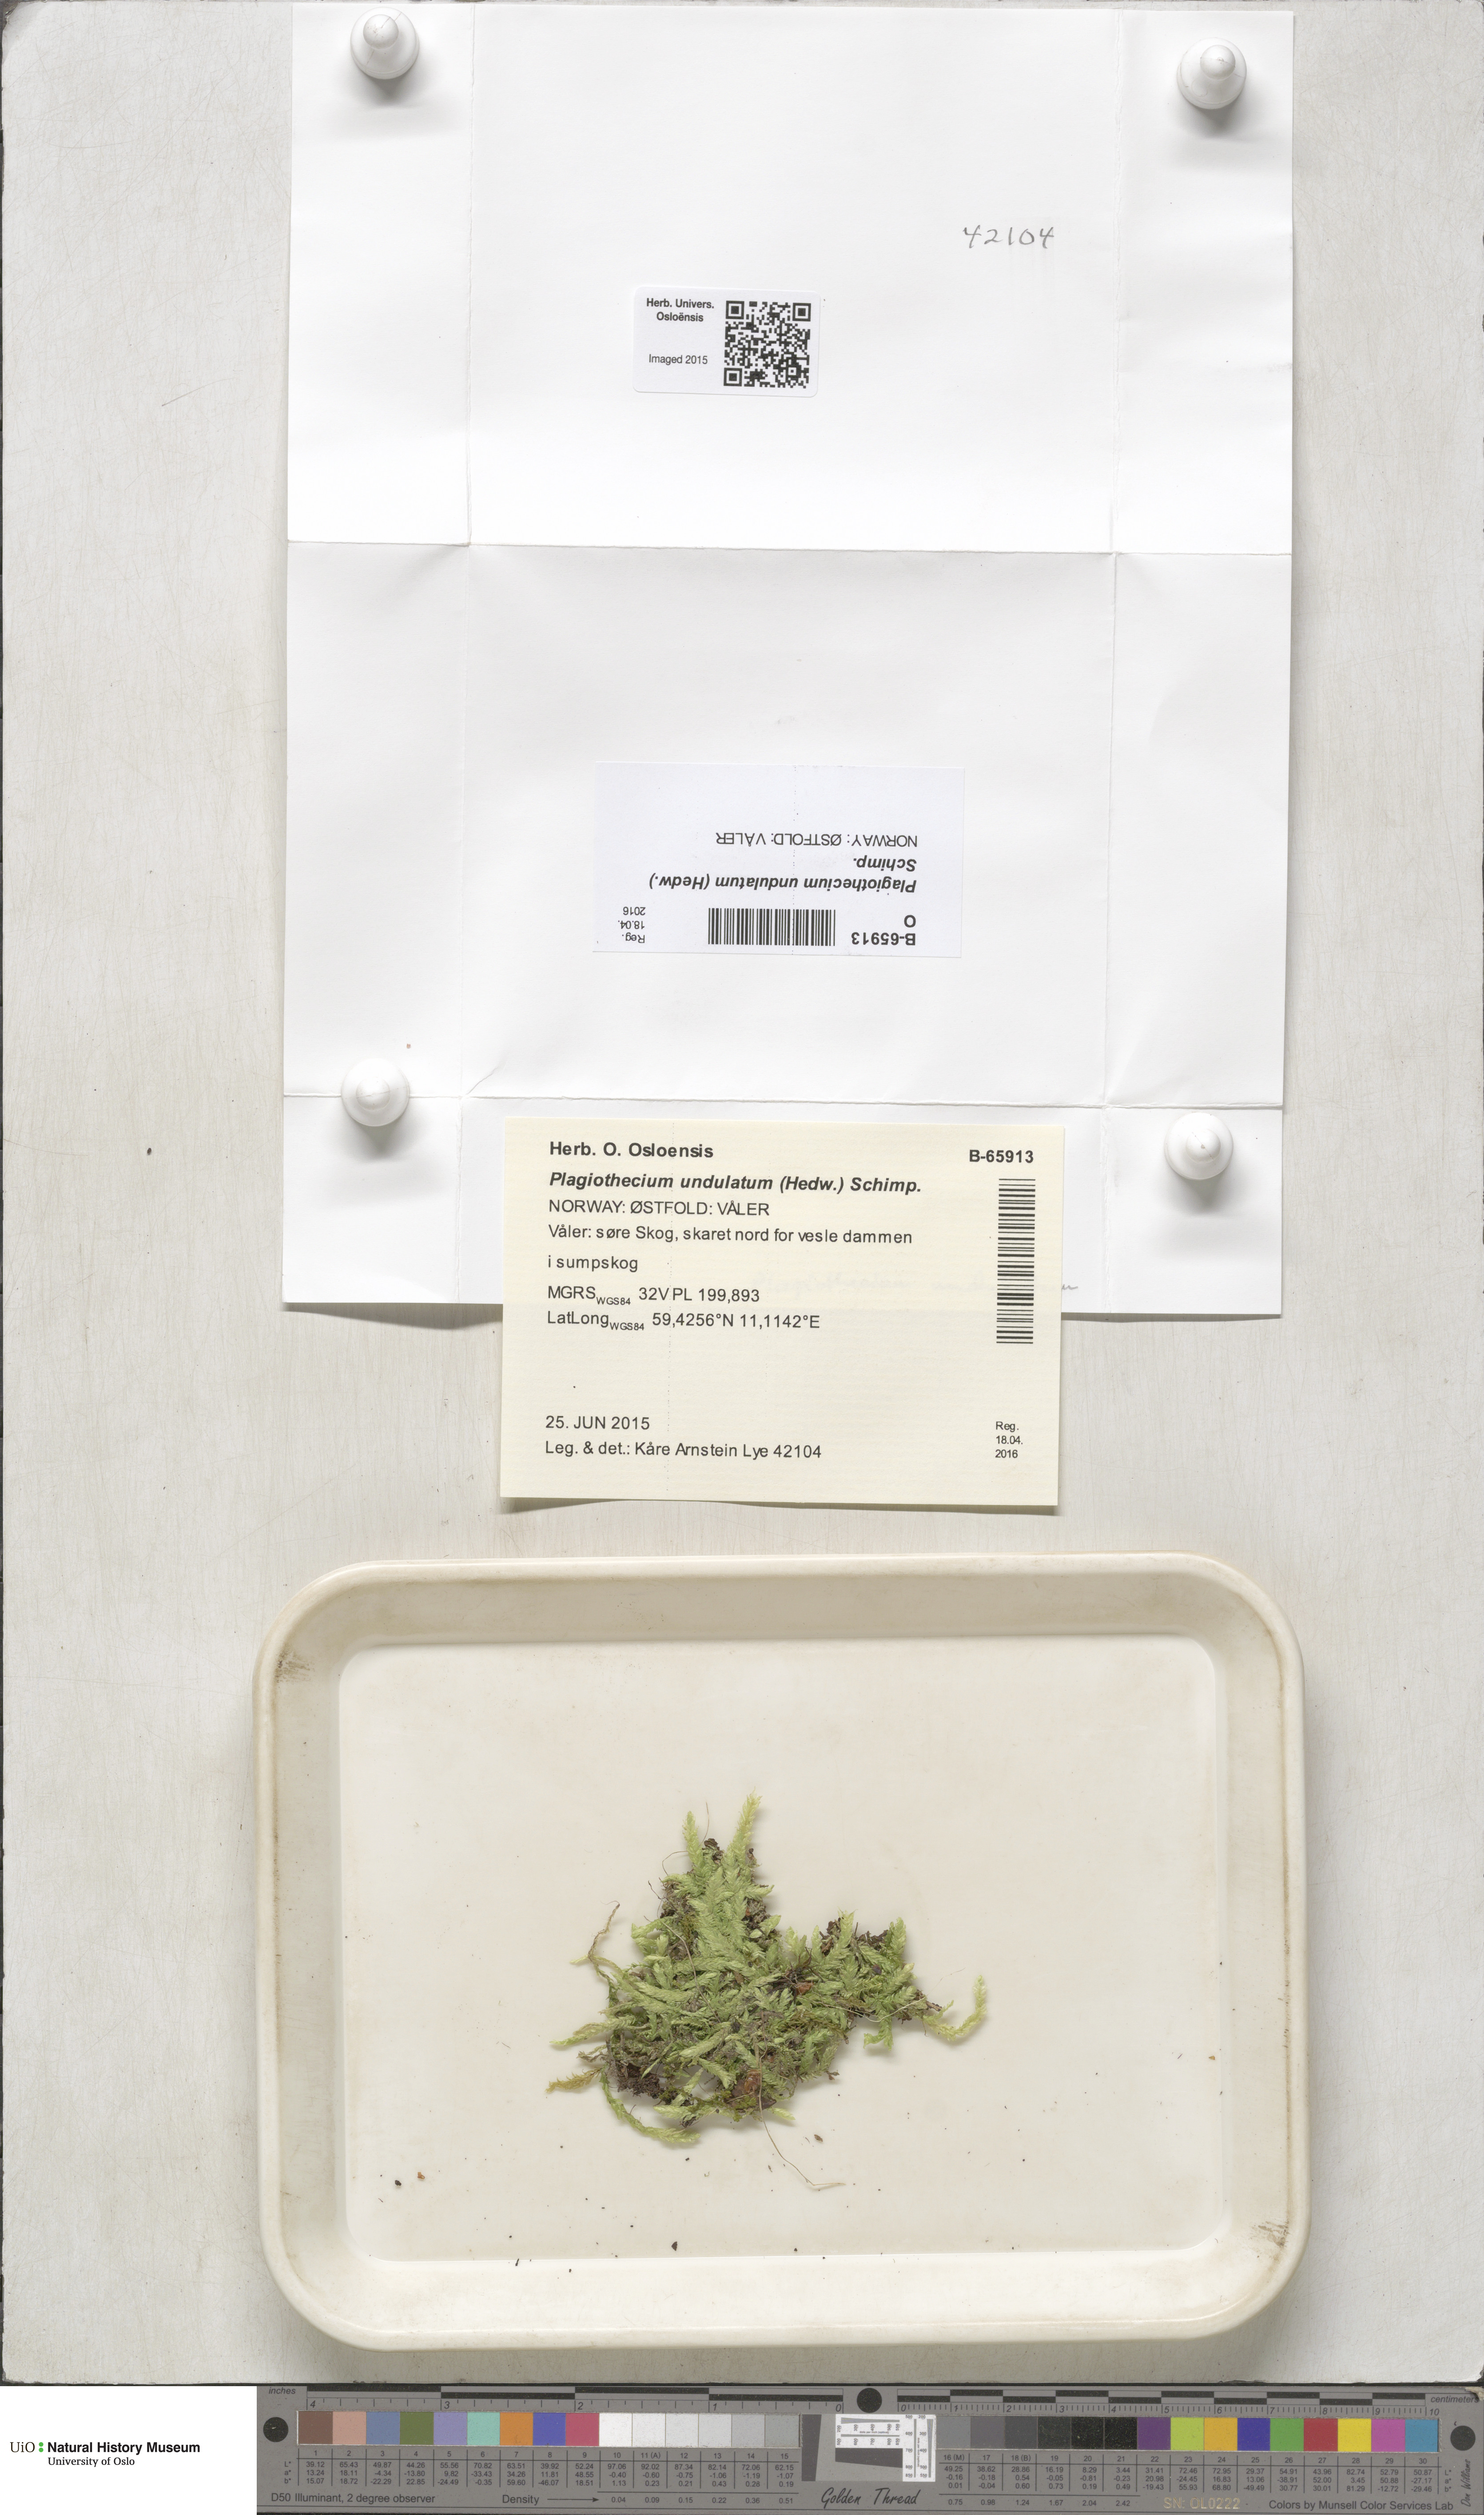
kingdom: Plantae
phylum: Bryophyta
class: Bryopsida
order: Hypnales
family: Plagiotheciaceae
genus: Plagiothecium
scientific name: Plagiothecium undulatum
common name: Waved silk-moss
